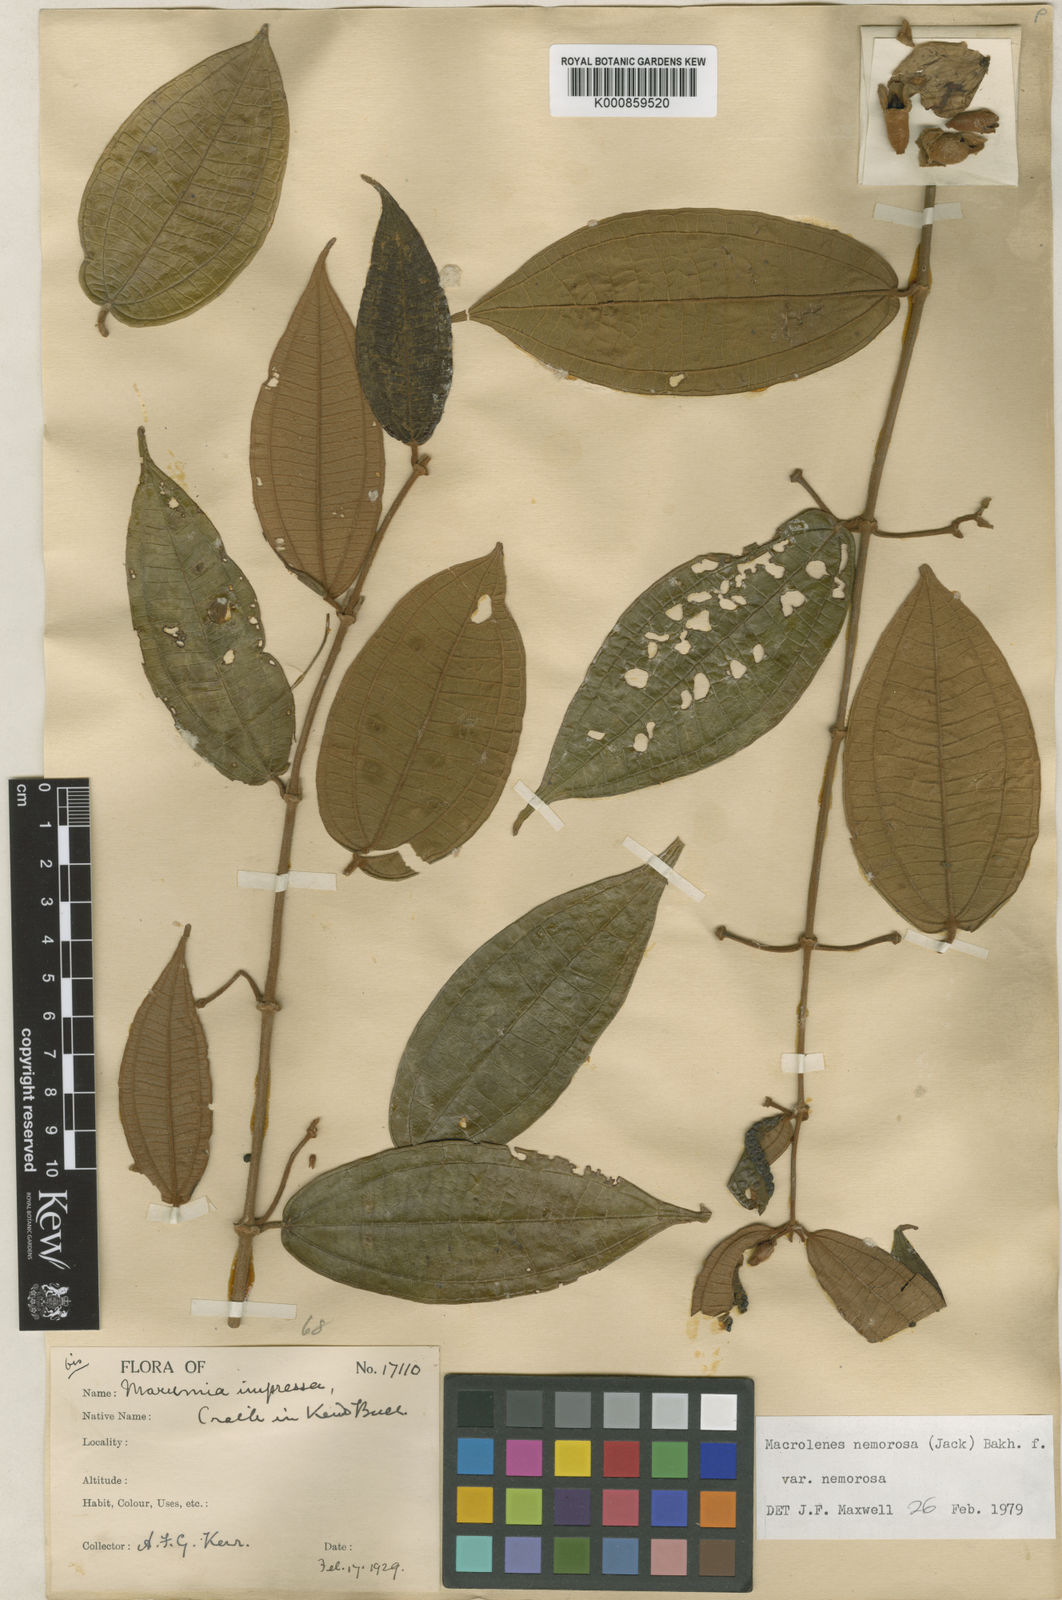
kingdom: Plantae
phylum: Tracheophyta
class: Magnoliopsida
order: Myrtales
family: Melastomataceae
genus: Macrolenes
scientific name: Macrolenes nemorosa
